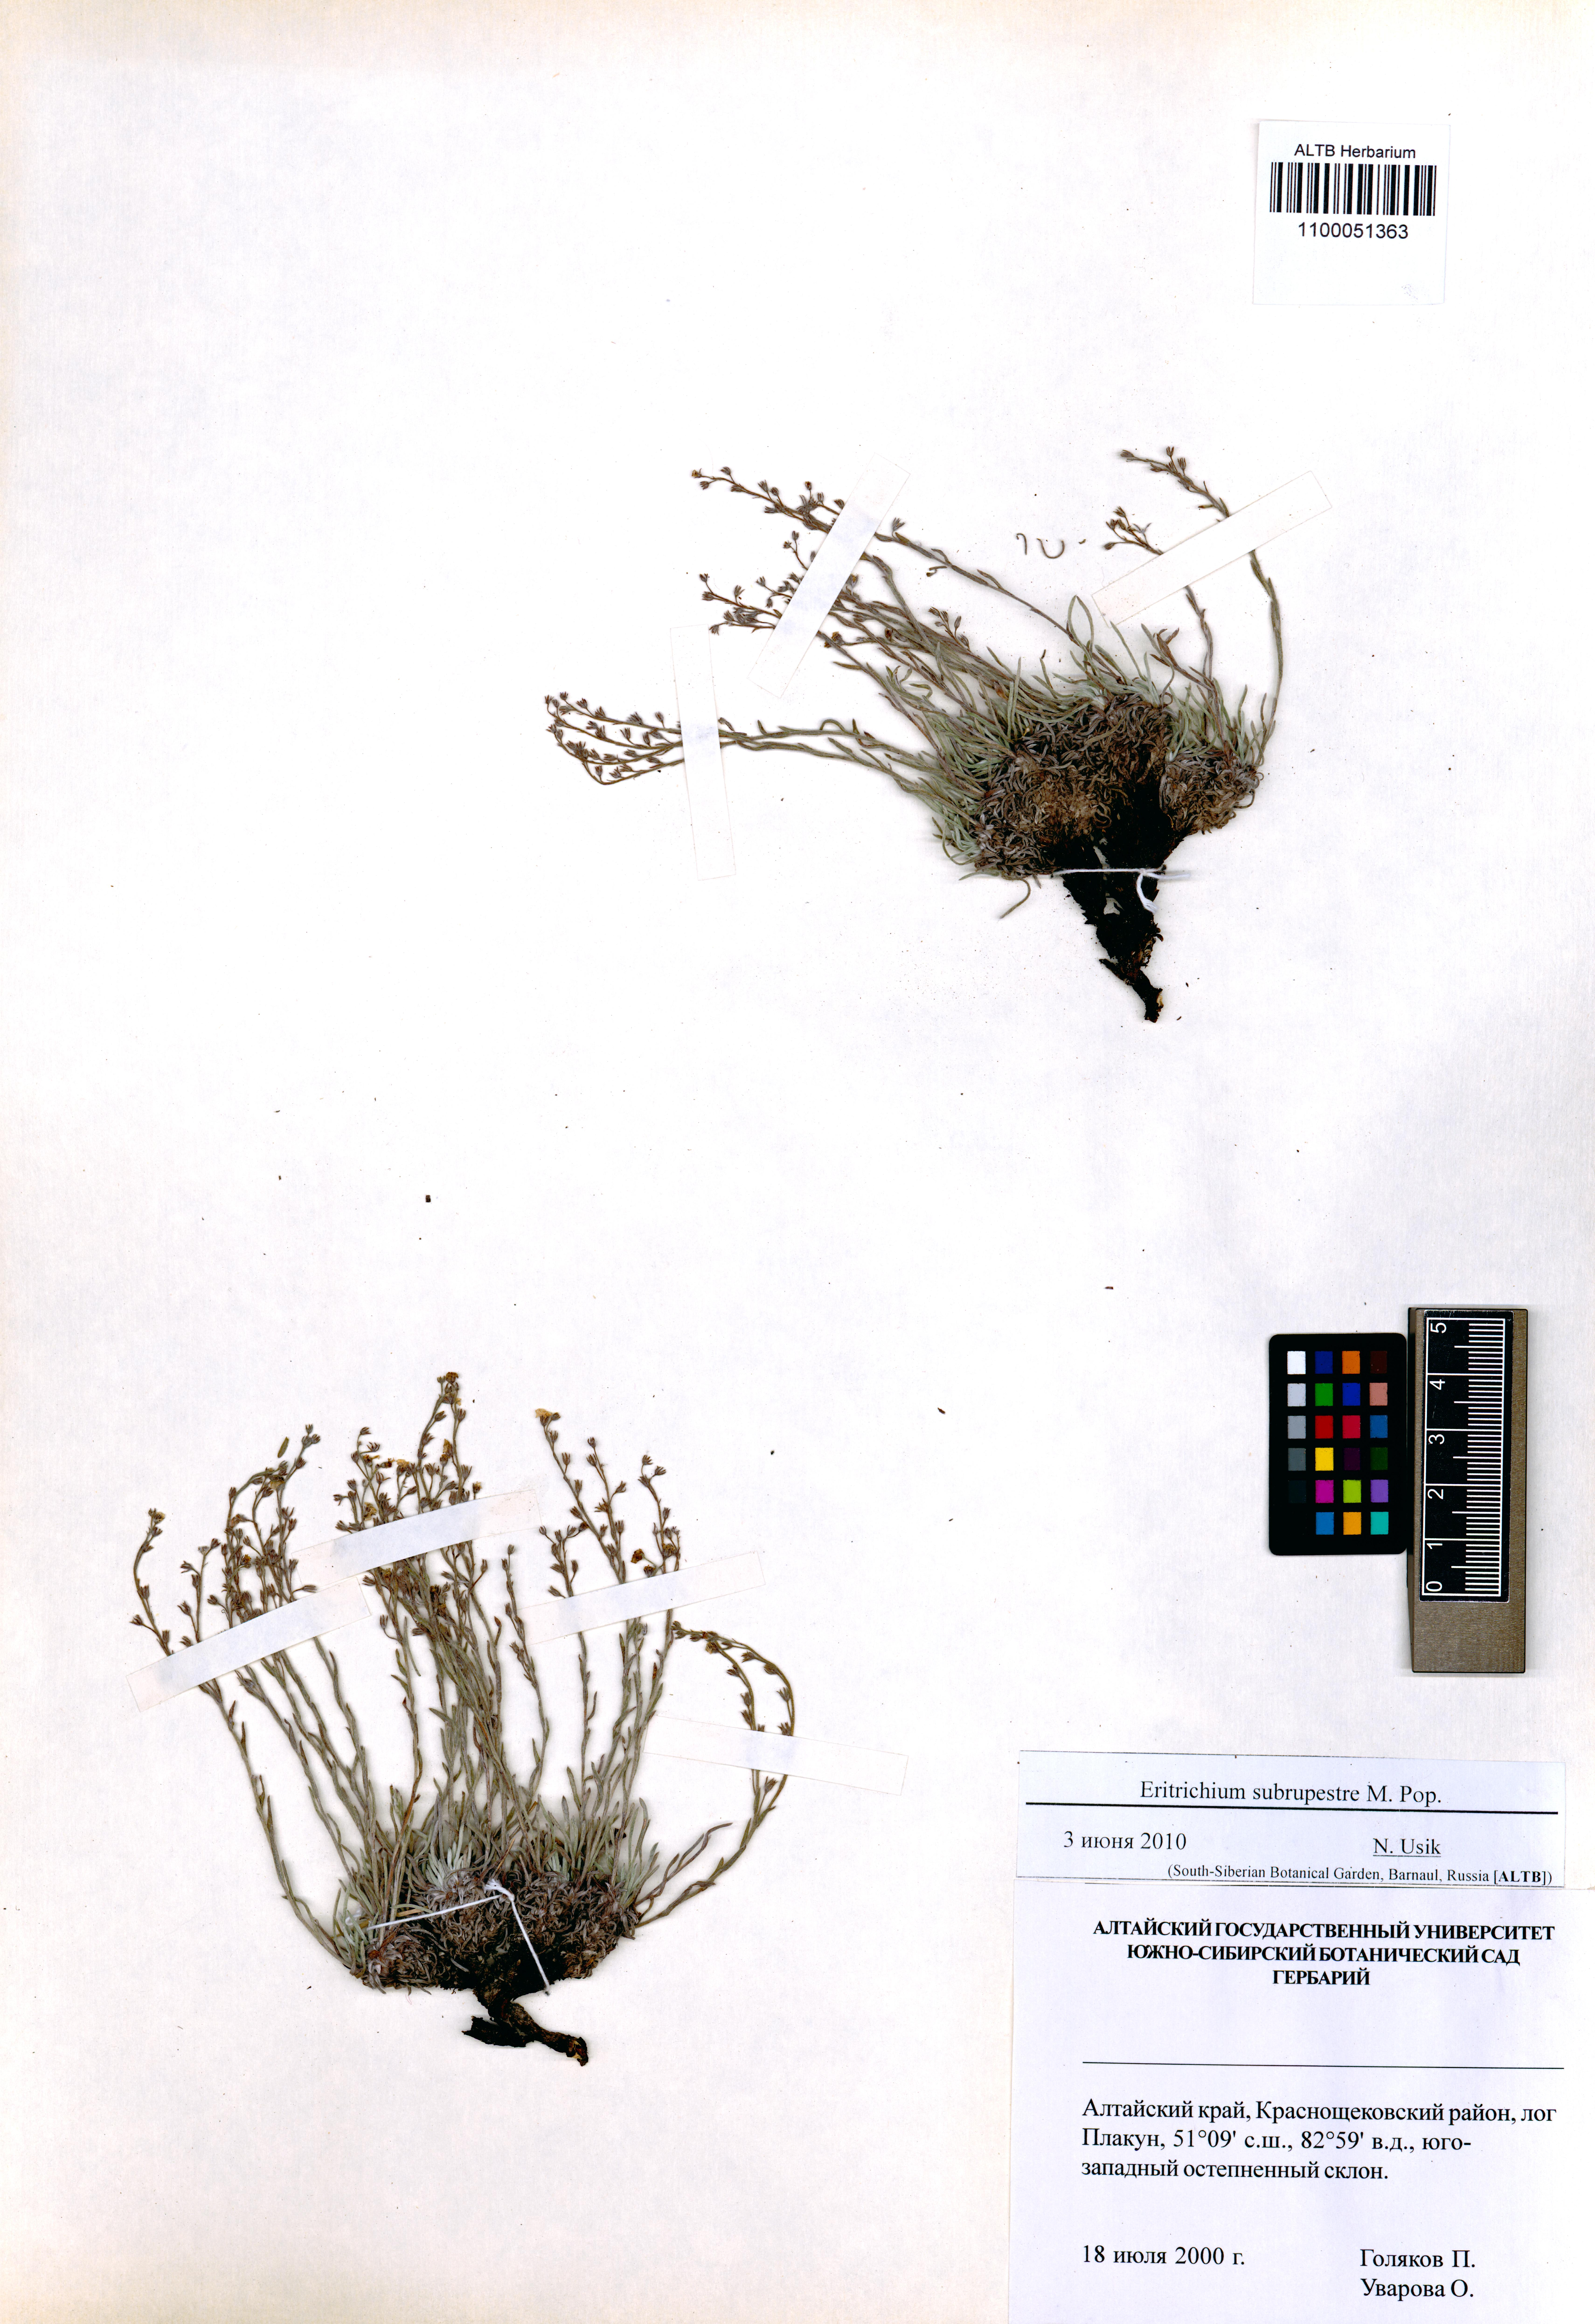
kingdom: Plantae
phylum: Tracheophyta
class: Magnoliopsida
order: Boraginales
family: Boraginaceae
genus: Eritrichium
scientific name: Eritrichium pauciflorum
